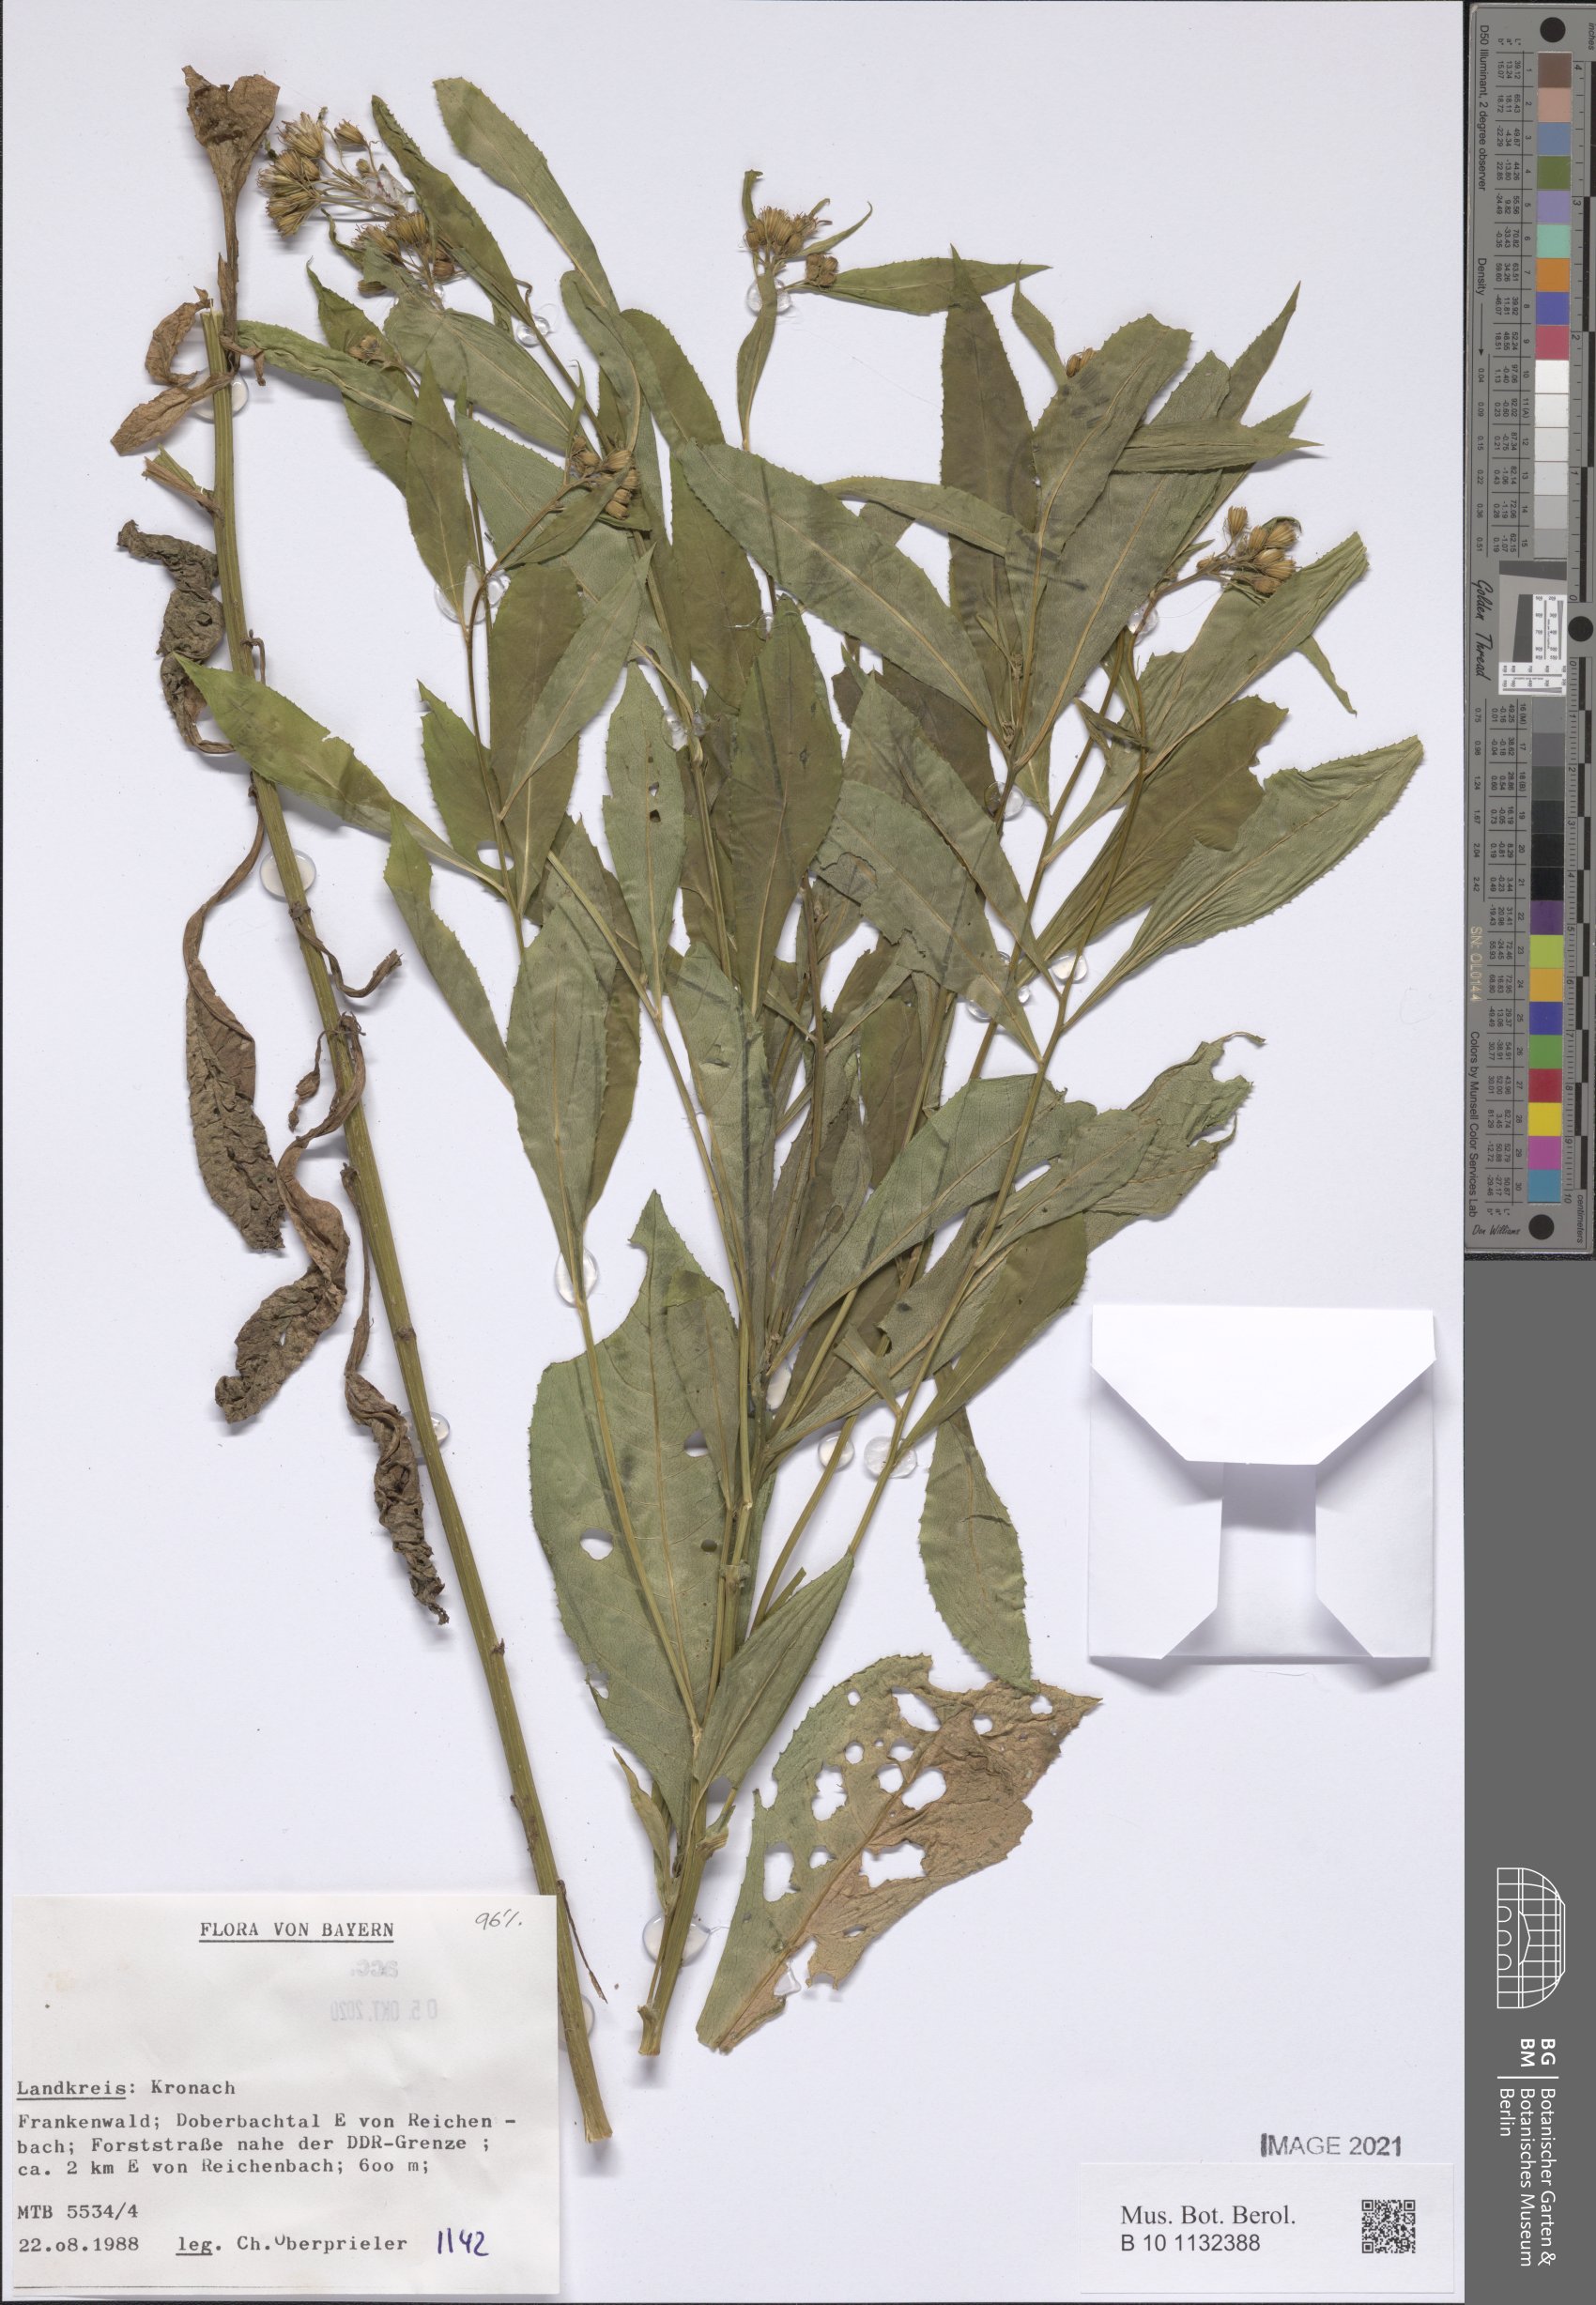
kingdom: Plantae
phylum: Tracheophyta
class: Magnoliopsida
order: Asterales
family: Asteraceae
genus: Senecio
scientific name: Senecio
